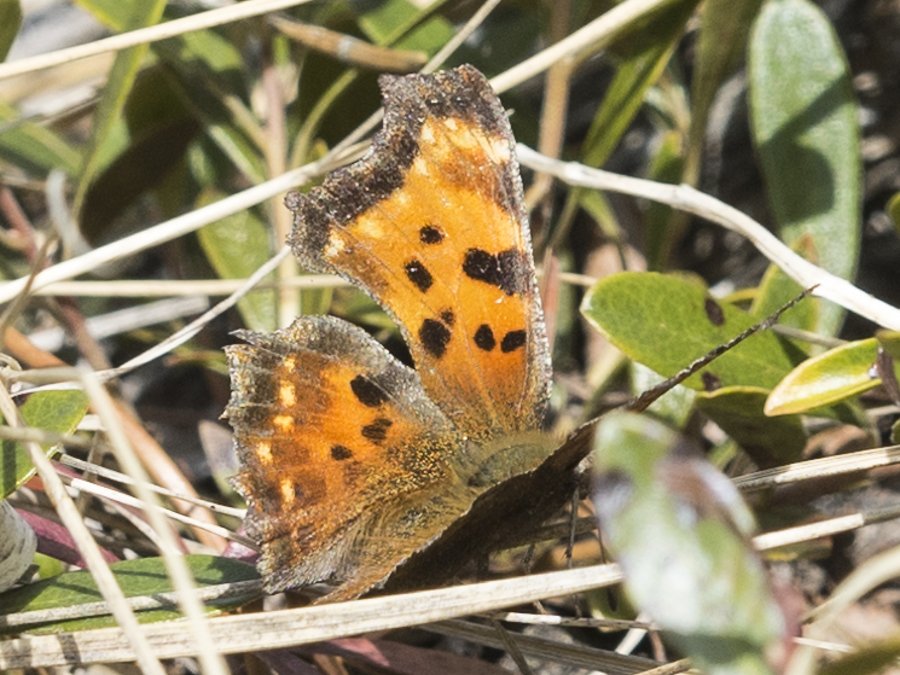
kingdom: Animalia
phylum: Arthropoda
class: Insecta
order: Lepidoptera
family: Nymphalidae
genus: Polygonia
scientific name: Polygonia satyrus
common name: Satyr Comma
